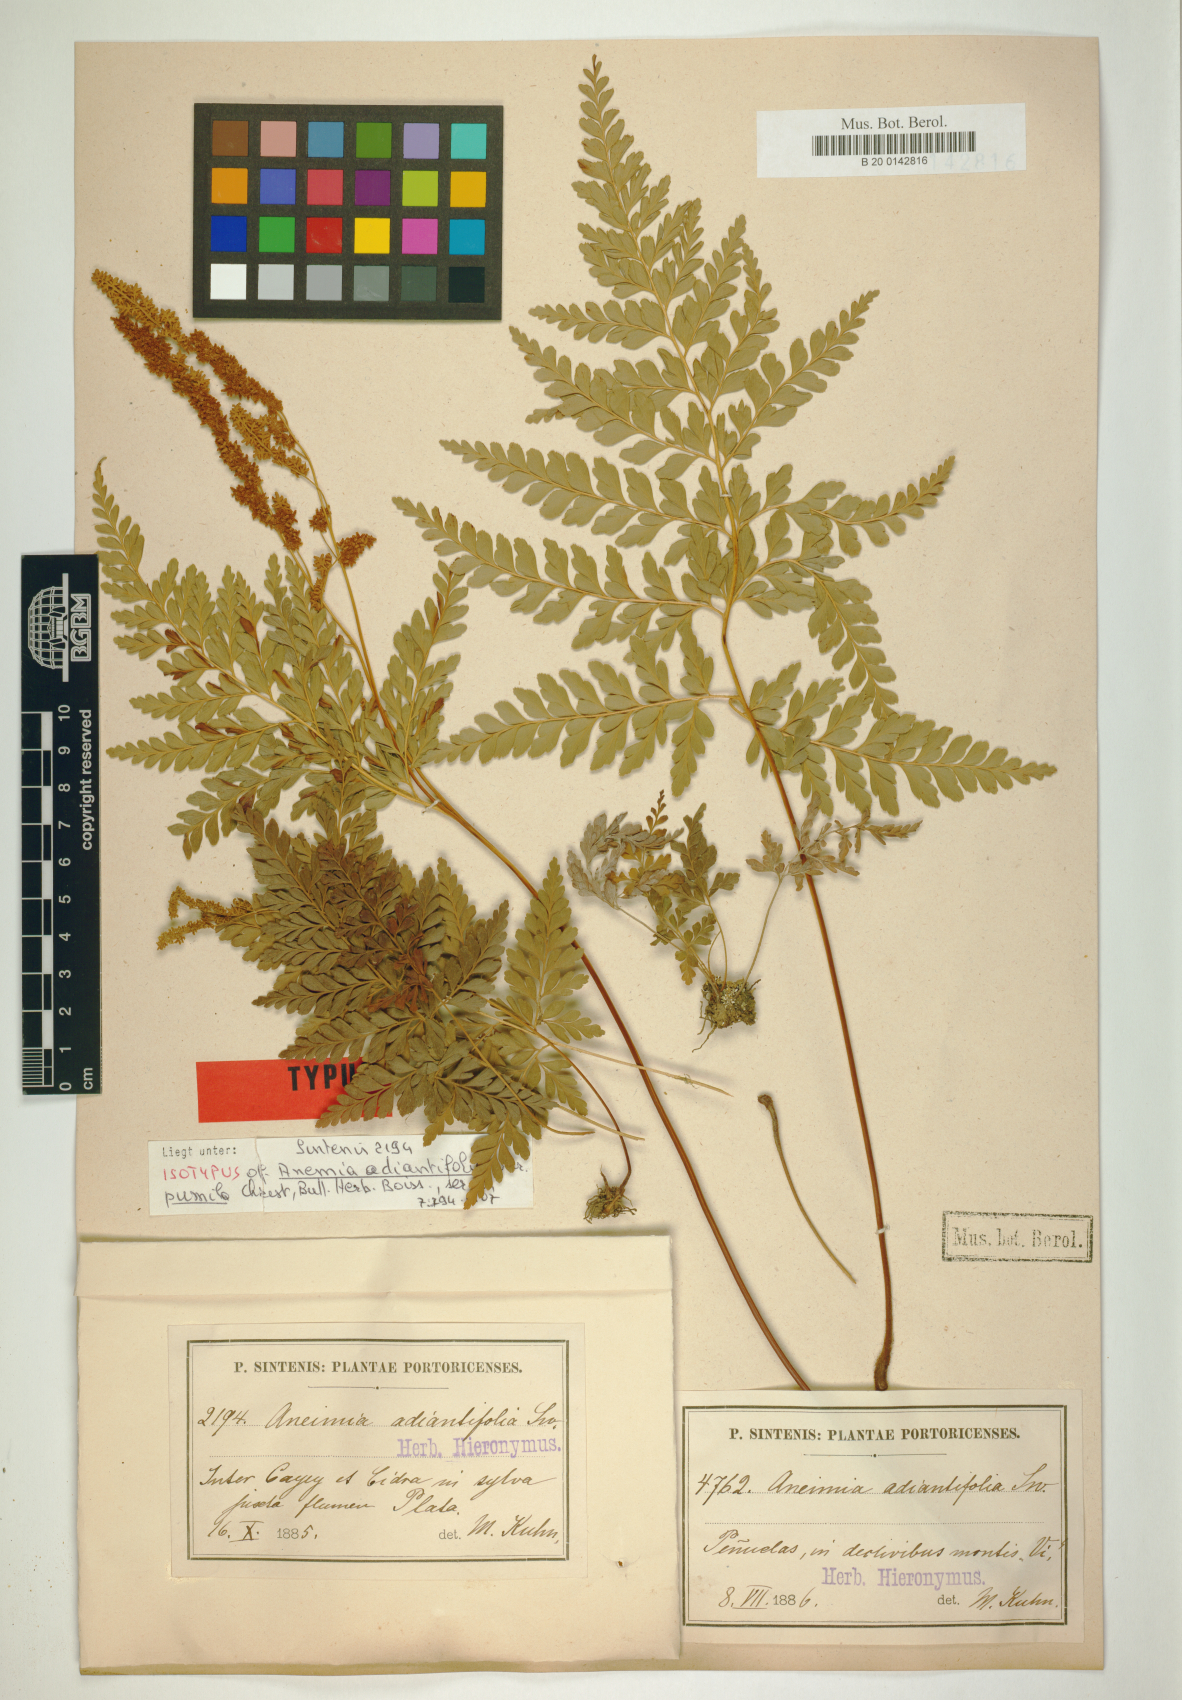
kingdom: Plantae
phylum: Tracheophyta
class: Polypodiopsida
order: Schizaeales
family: Anemiaceae
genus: Anemia
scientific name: Anemia adiantifolia
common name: Pine fern
